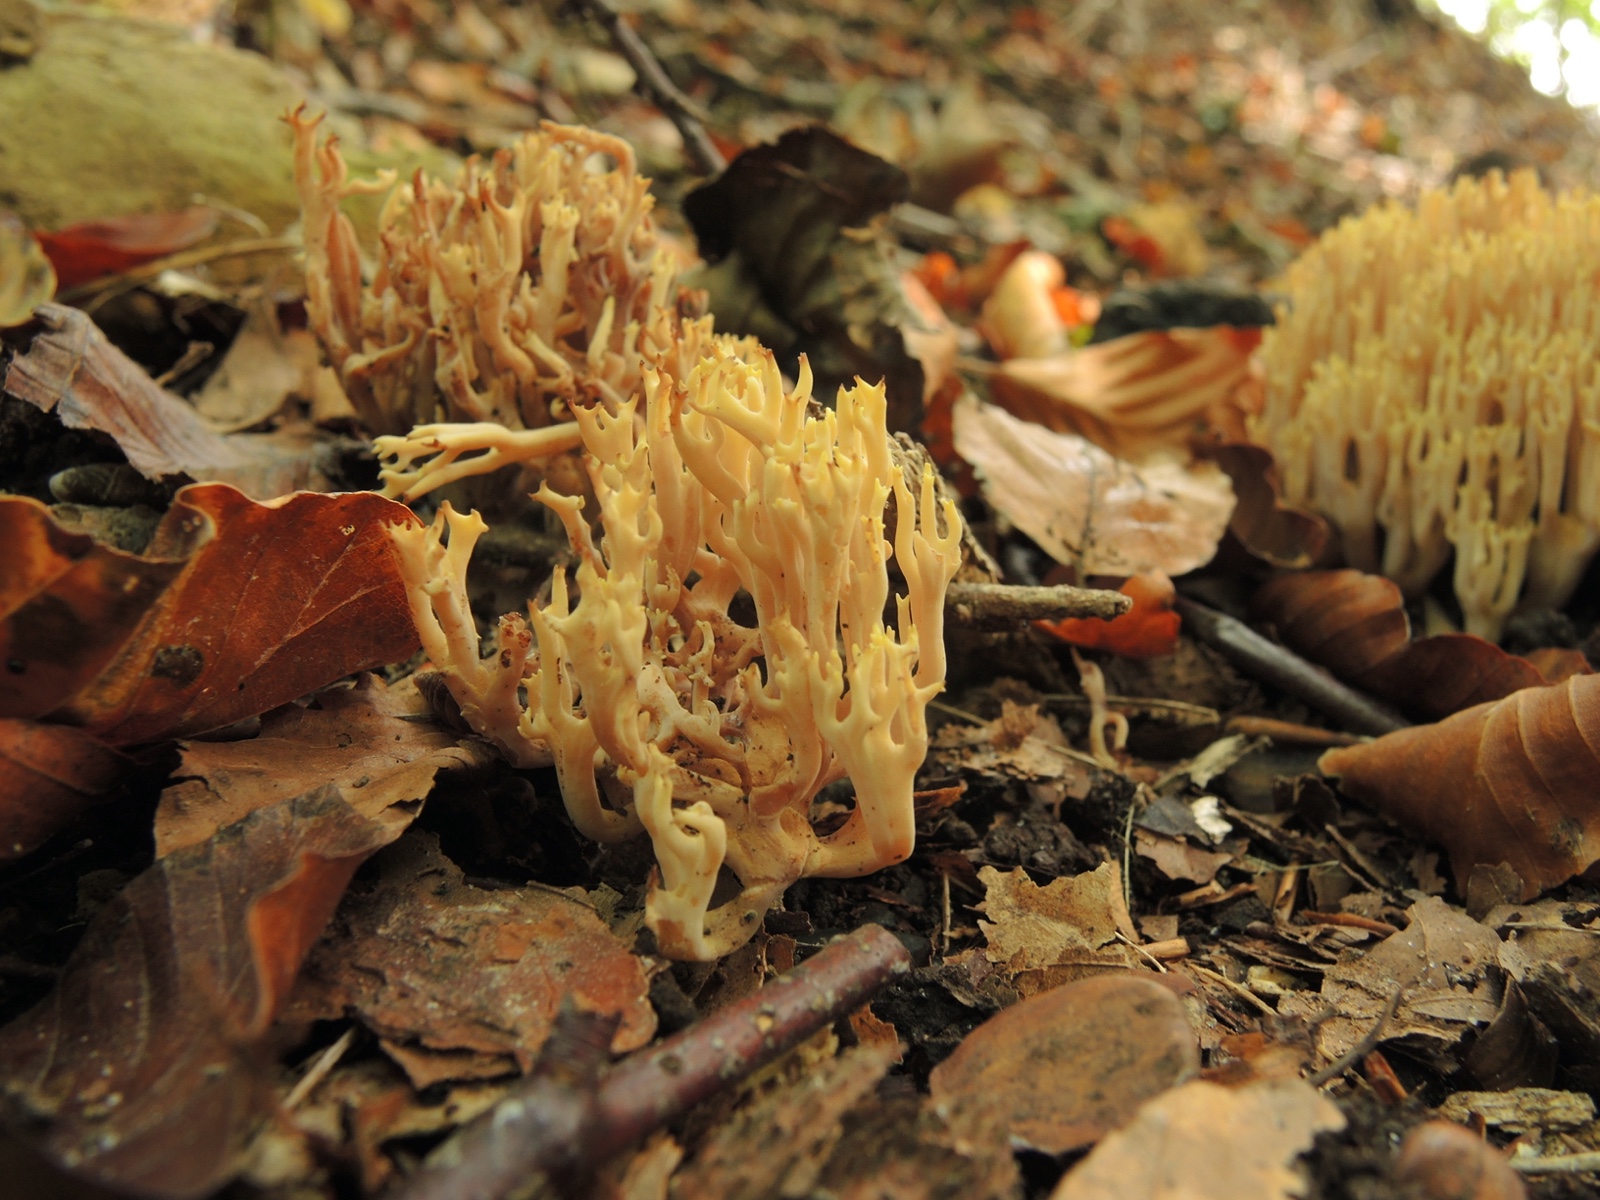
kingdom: Fungi
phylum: Basidiomycota
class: Agaricomycetes
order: Gomphales
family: Gomphaceae
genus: Ramaria
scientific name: Ramaria stricta
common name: rank koralsvamp
